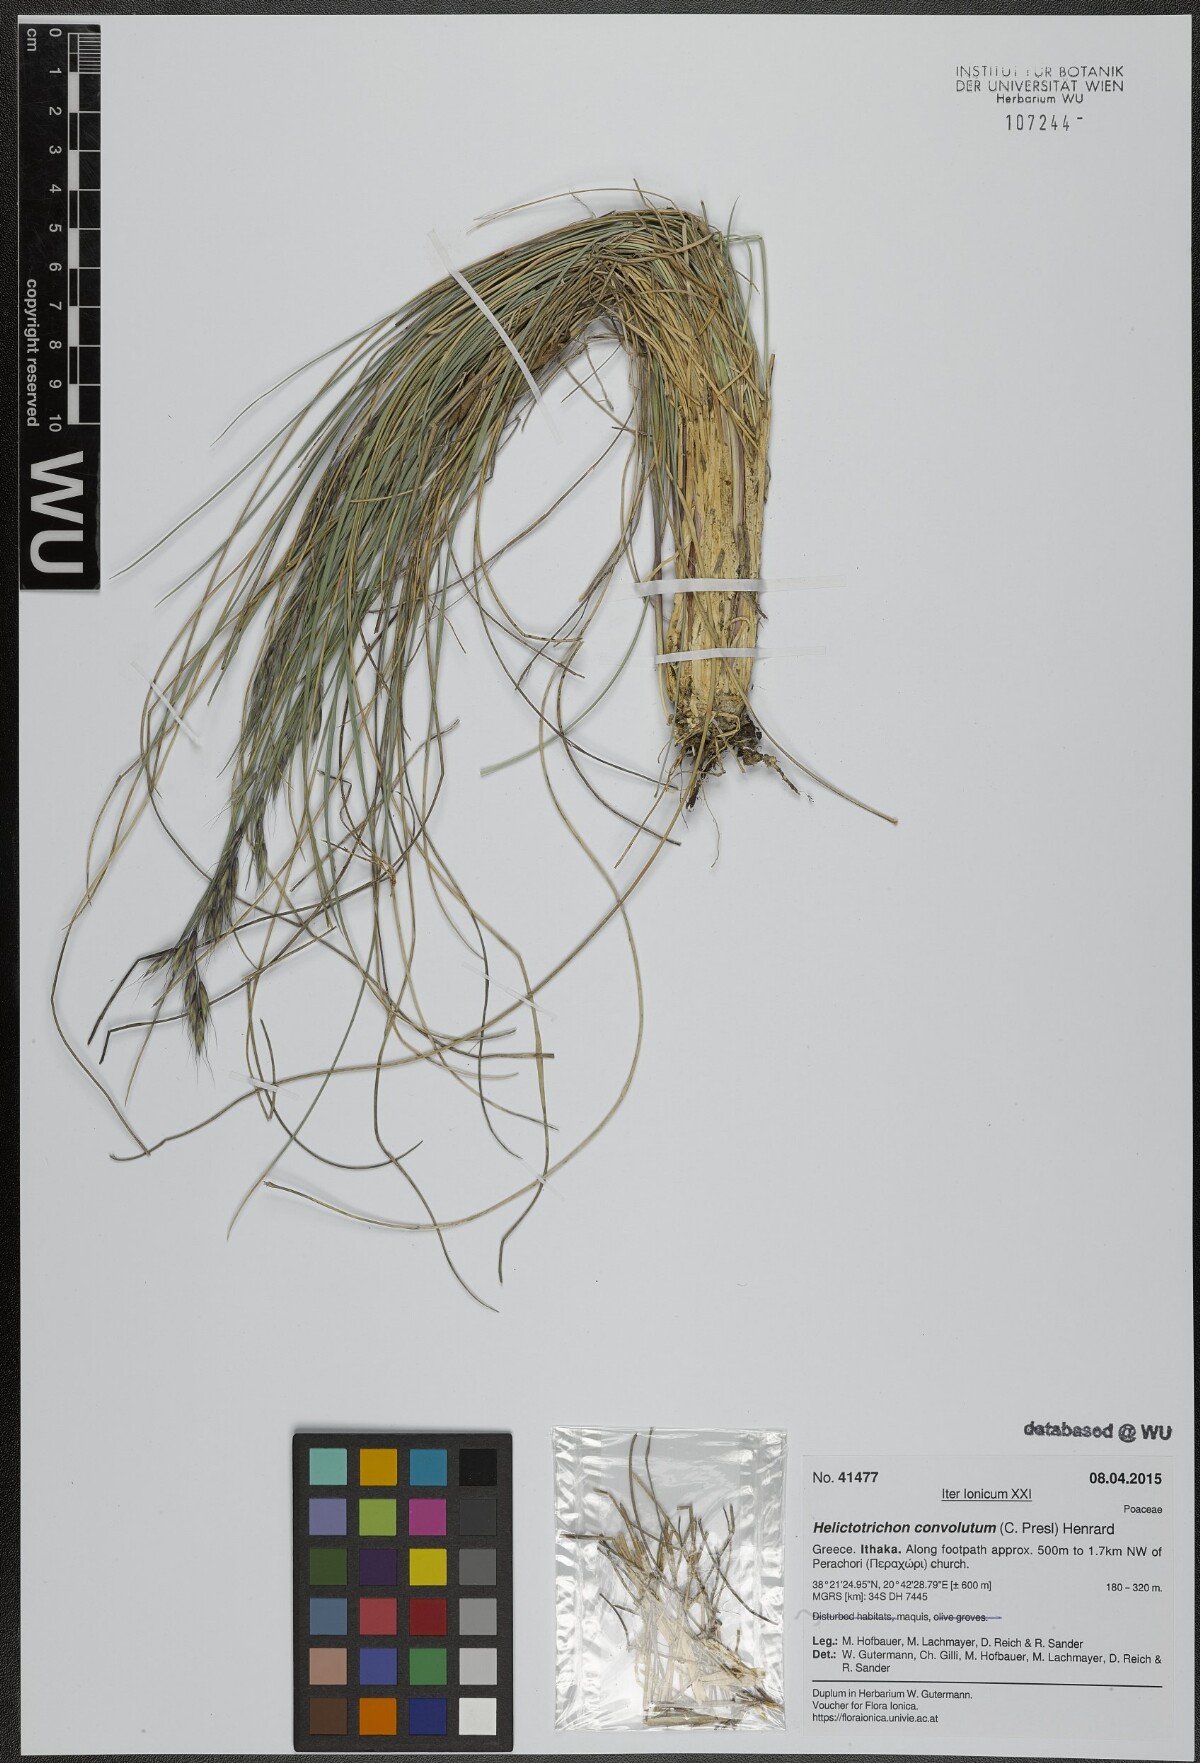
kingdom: Plantae
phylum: Tracheophyta
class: Liliopsida
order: Poales
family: Poaceae
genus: Helictotrichon
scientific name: Helictotrichon convolutum
